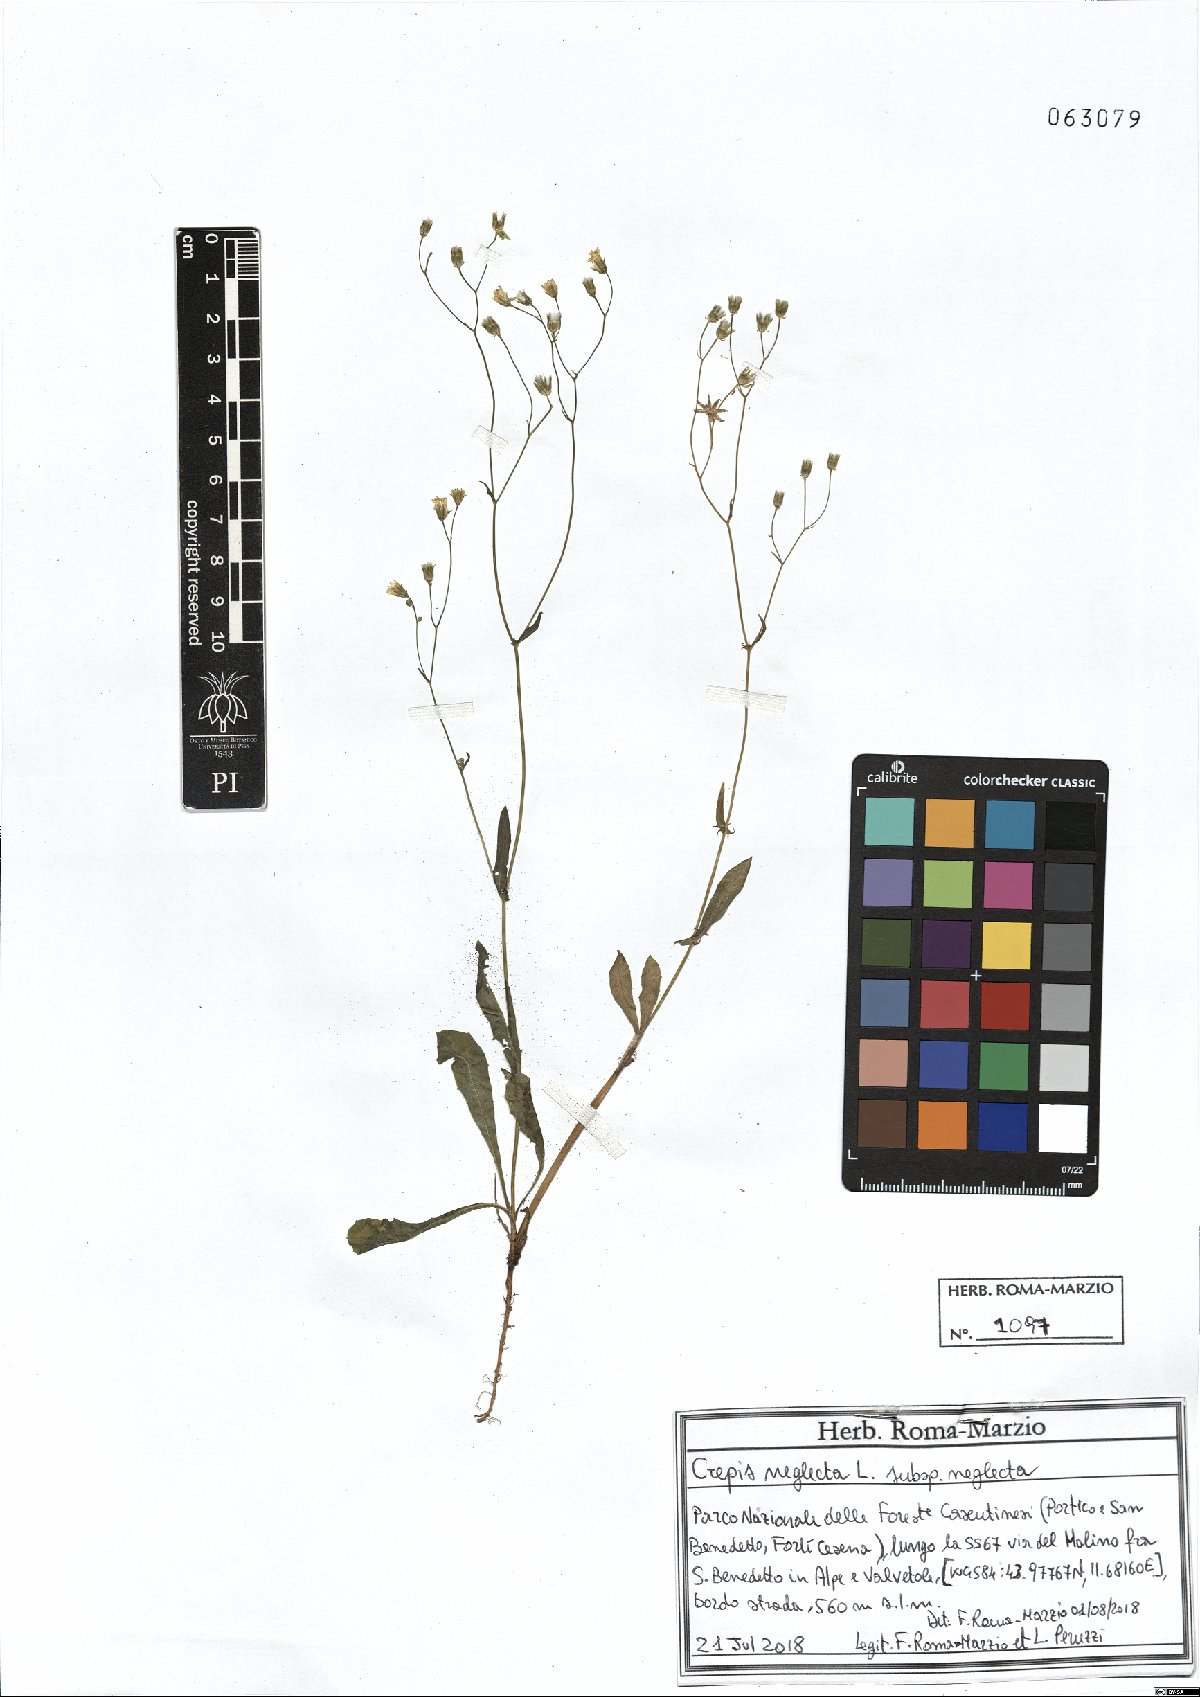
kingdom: Plantae
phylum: Tracheophyta
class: Magnoliopsida
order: Asterales
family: Asteraceae
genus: Crepis
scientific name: Crepis neglecta
